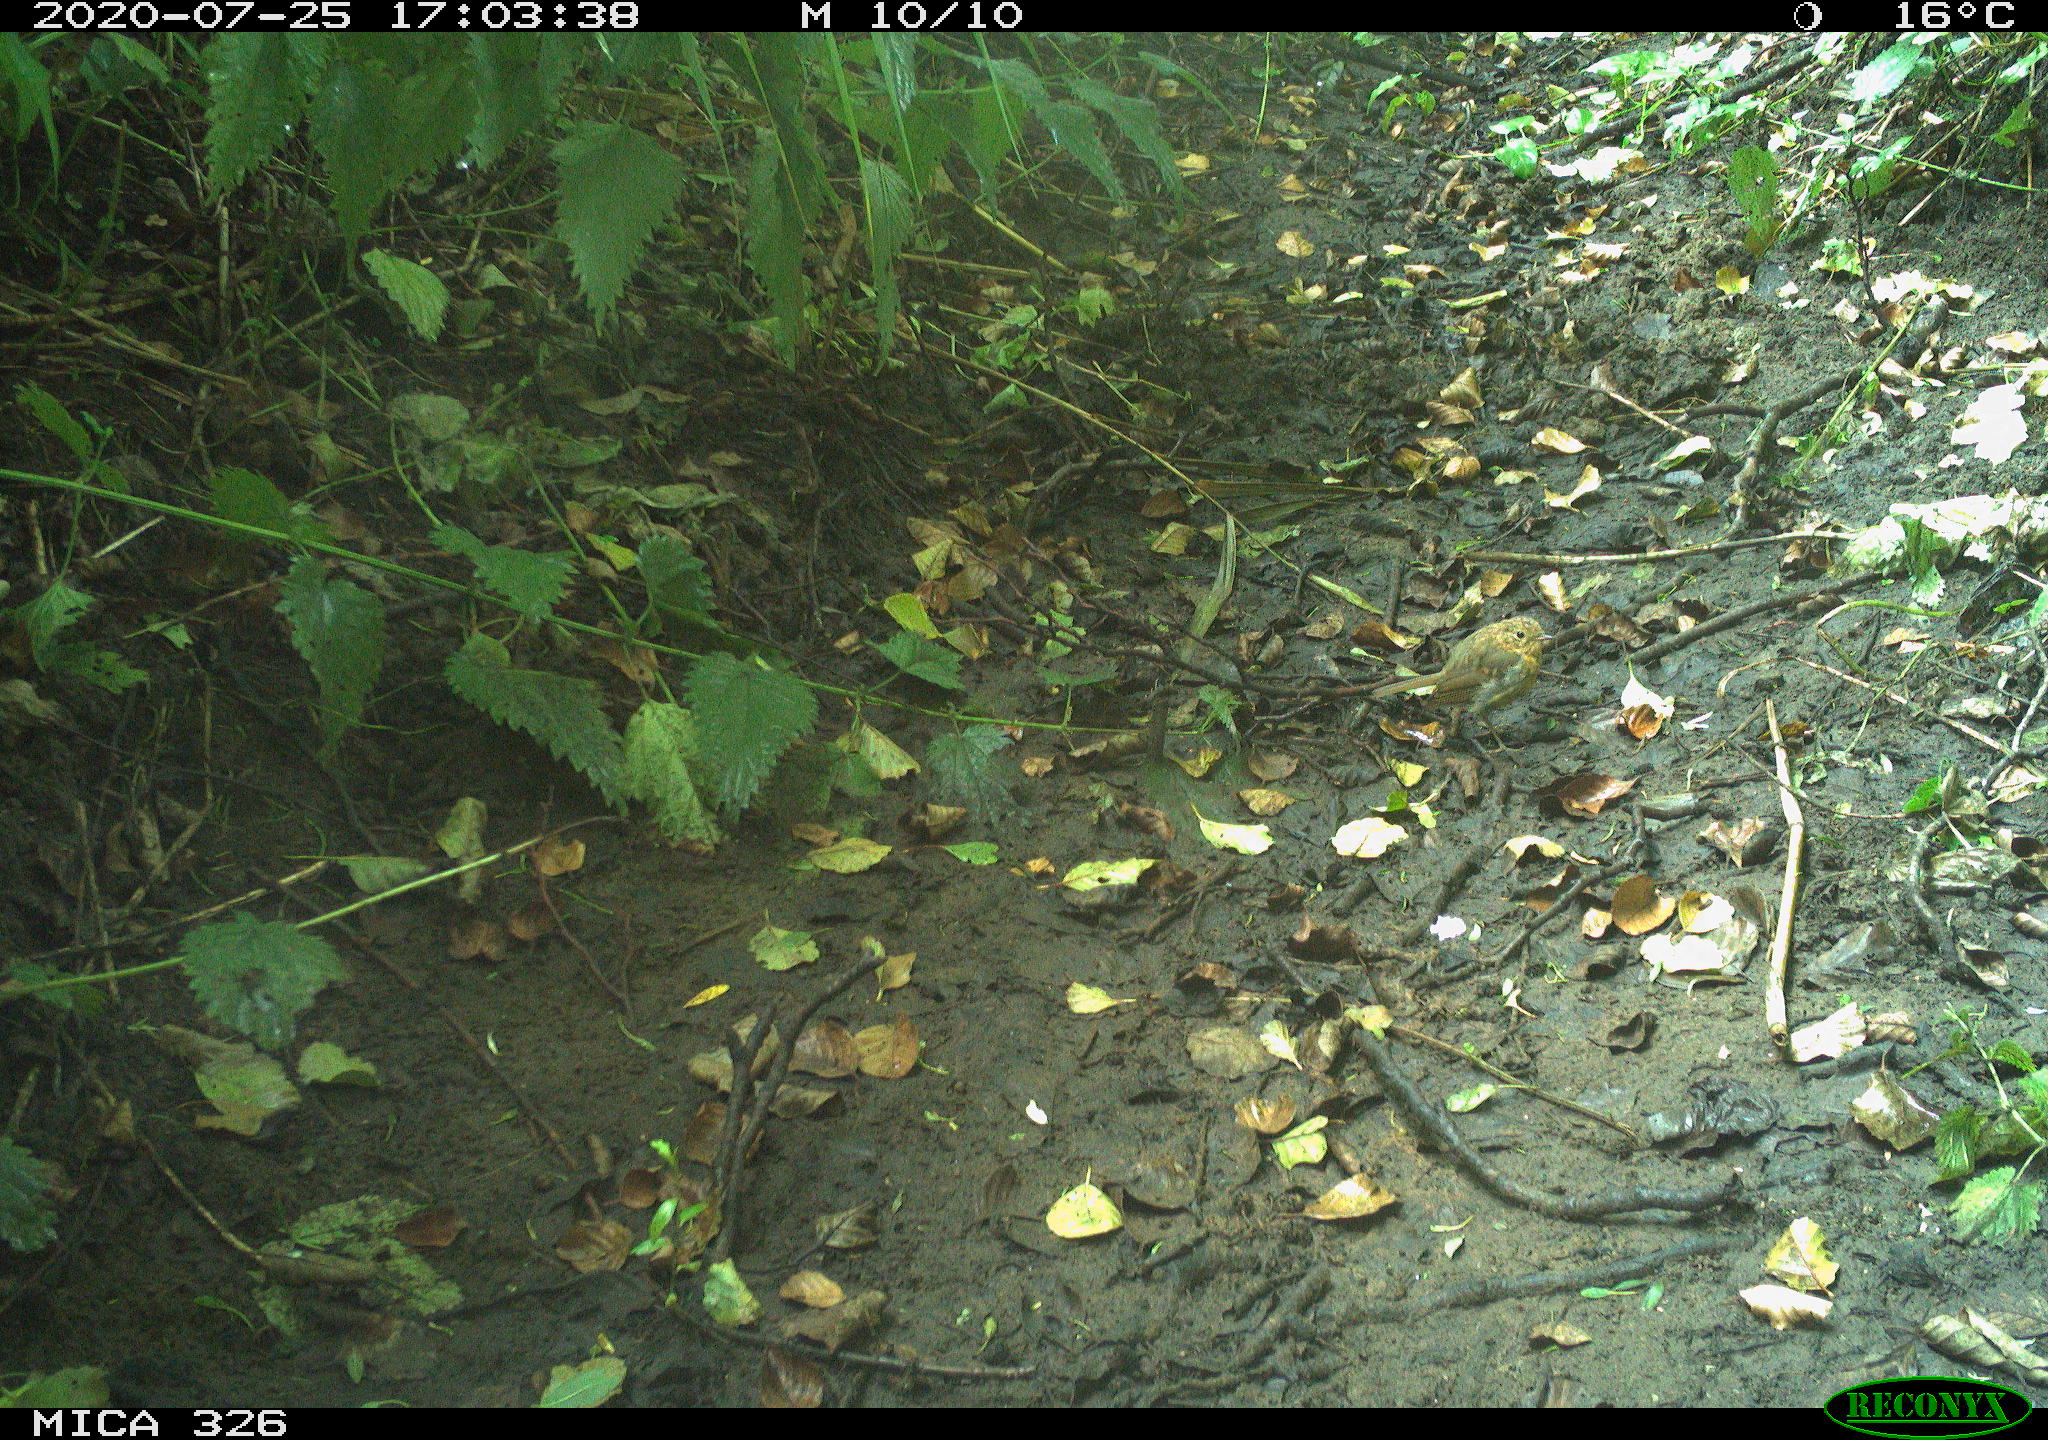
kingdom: Animalia
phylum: Chordata
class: Aves
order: Passeriformes
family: Muscicapidae
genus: Erithacus
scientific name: Erithacus rubecula
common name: European robin
